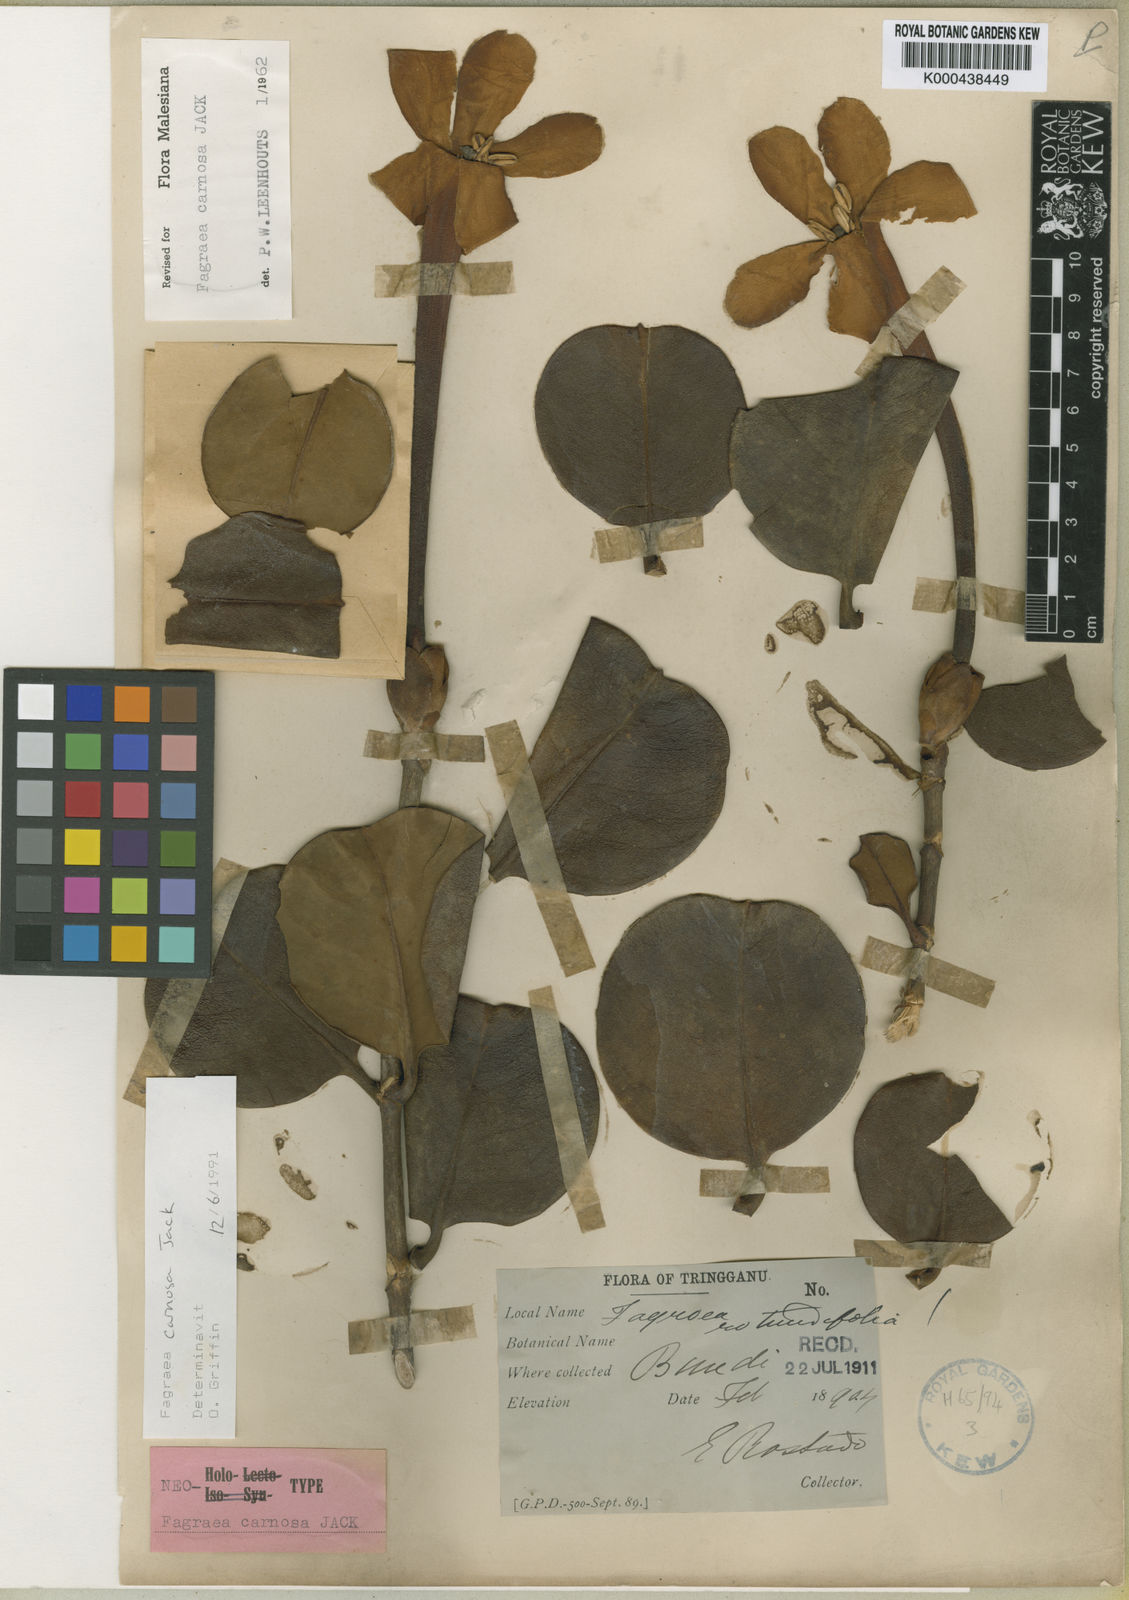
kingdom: Plantae
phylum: Tracheophyta
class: Magnoliopsida
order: Gentianales
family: Gentianaceae
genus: Fagraea
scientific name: Fagraea carnosa
